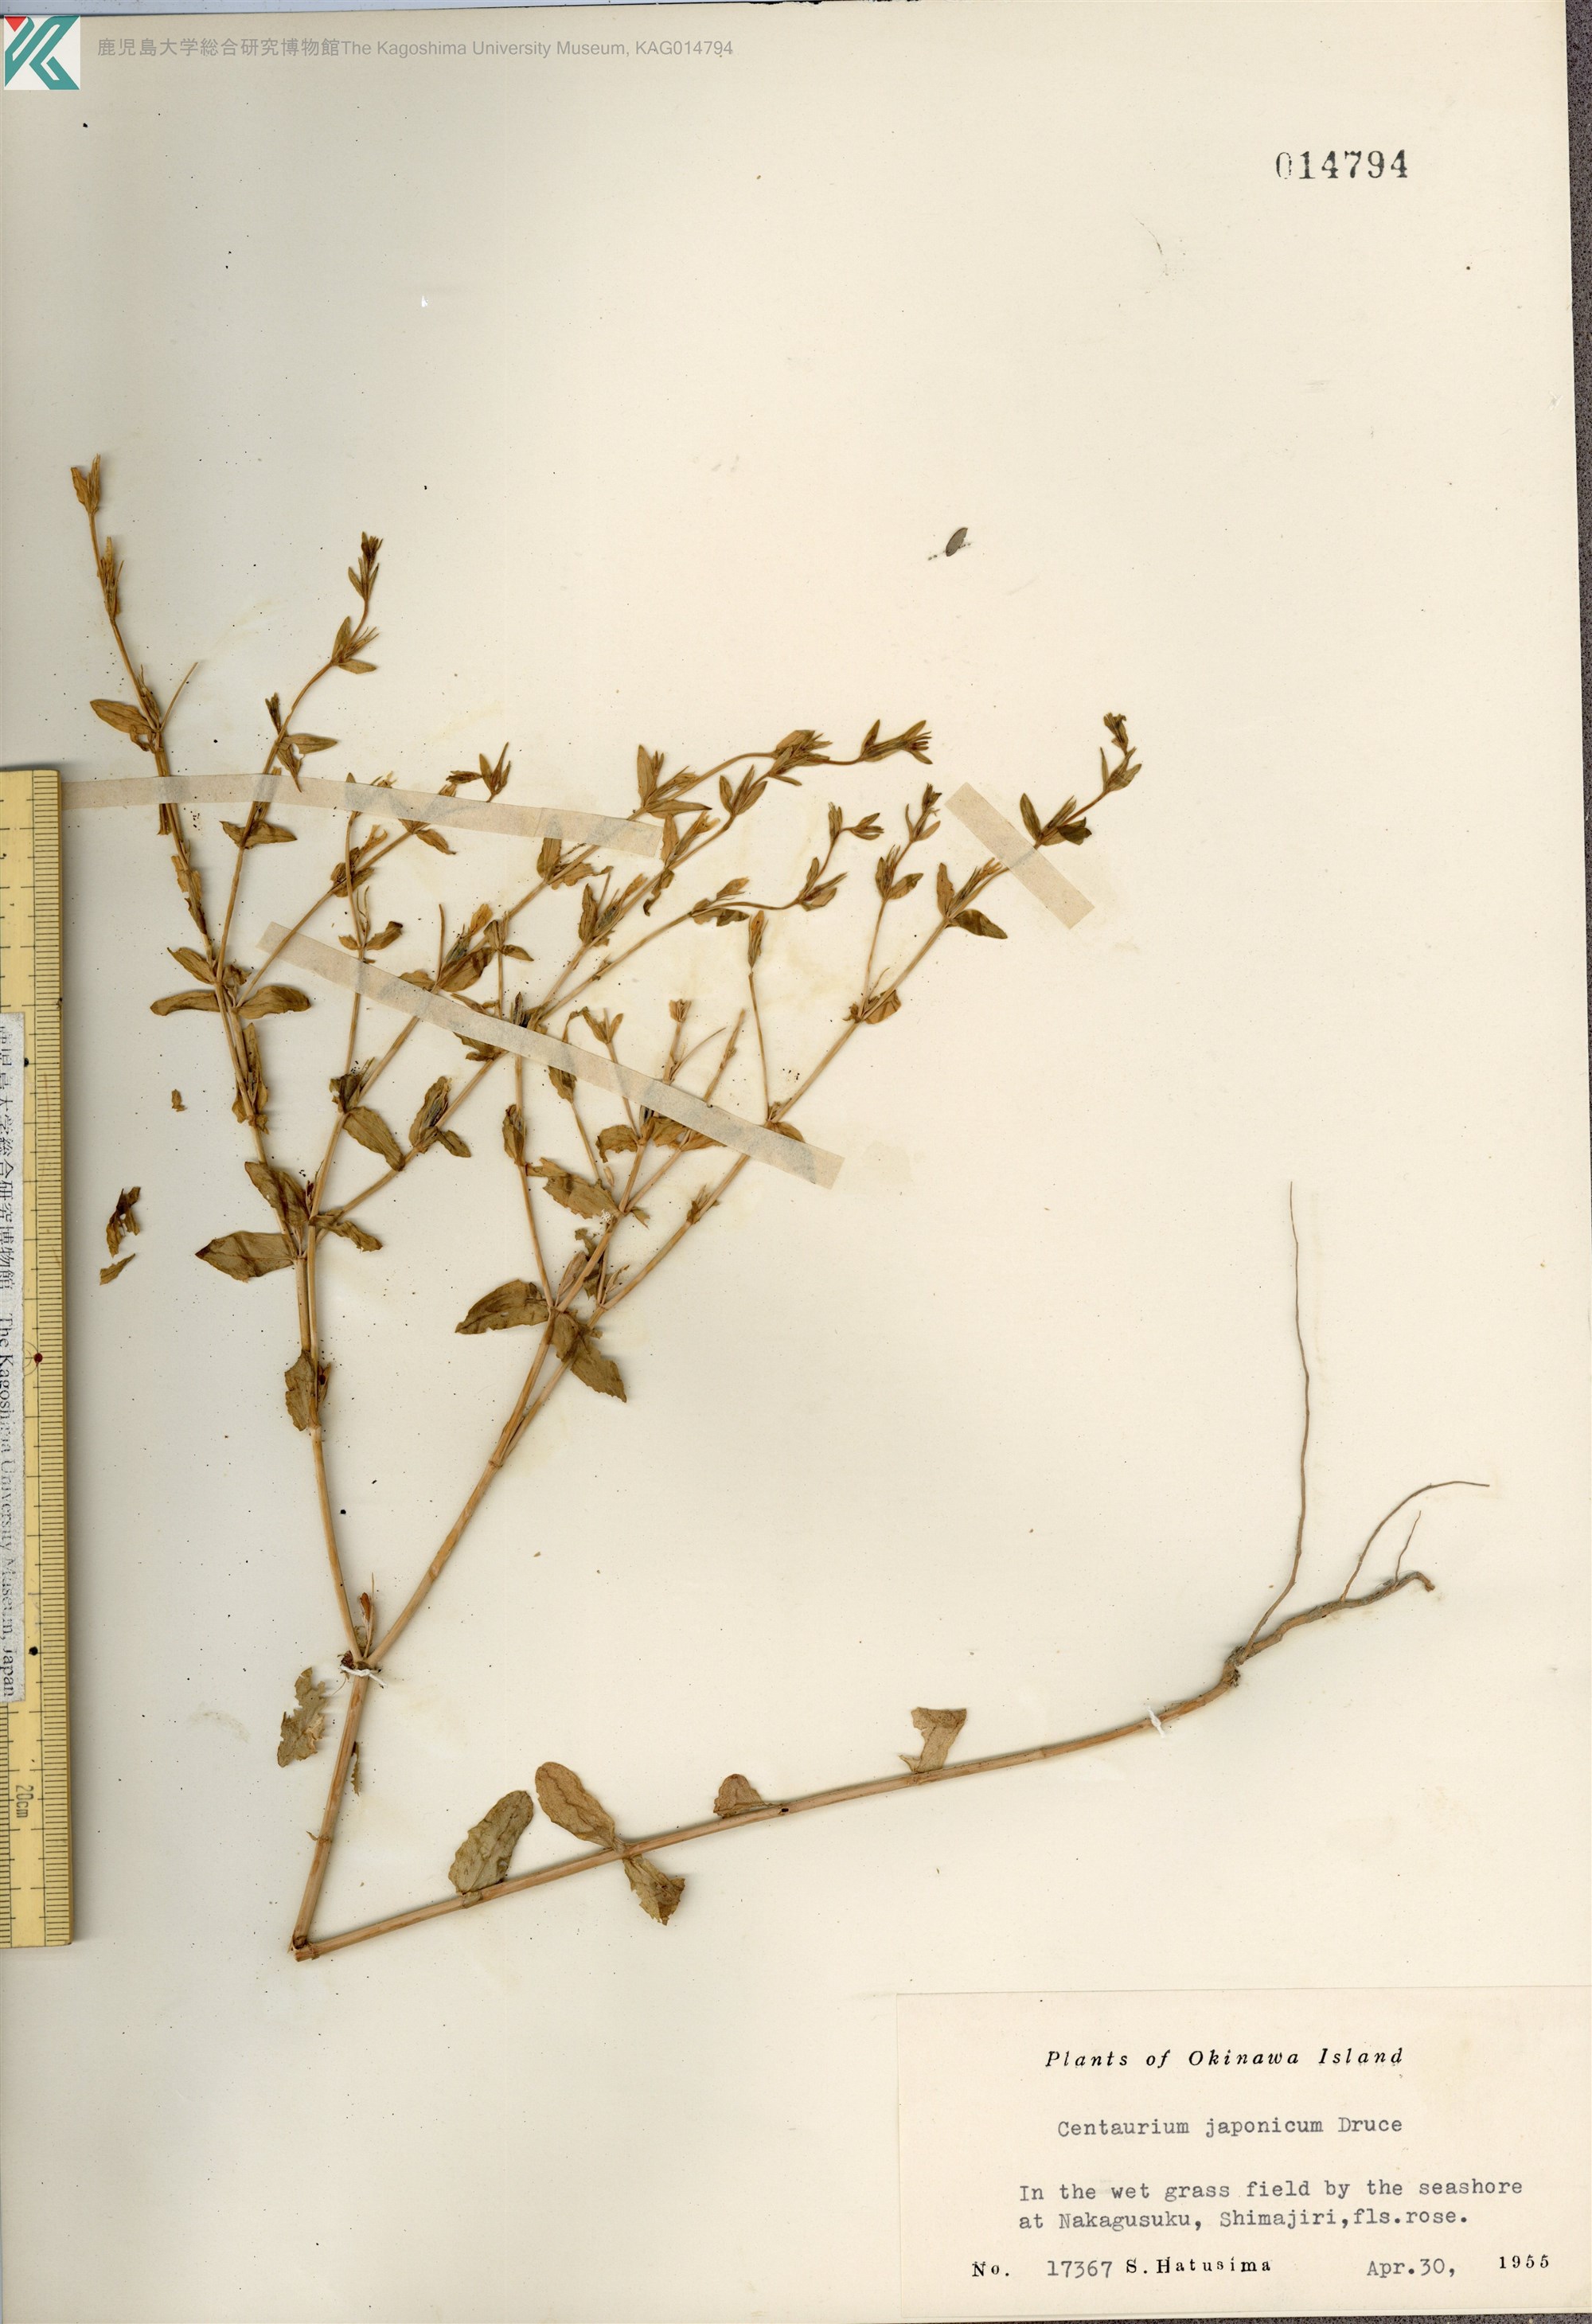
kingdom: Plantae
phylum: Tracheophyta
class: Magnoliopsida
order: Gentianales
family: Gentianaceae
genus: Schenkia
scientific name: Schenkia japonica
